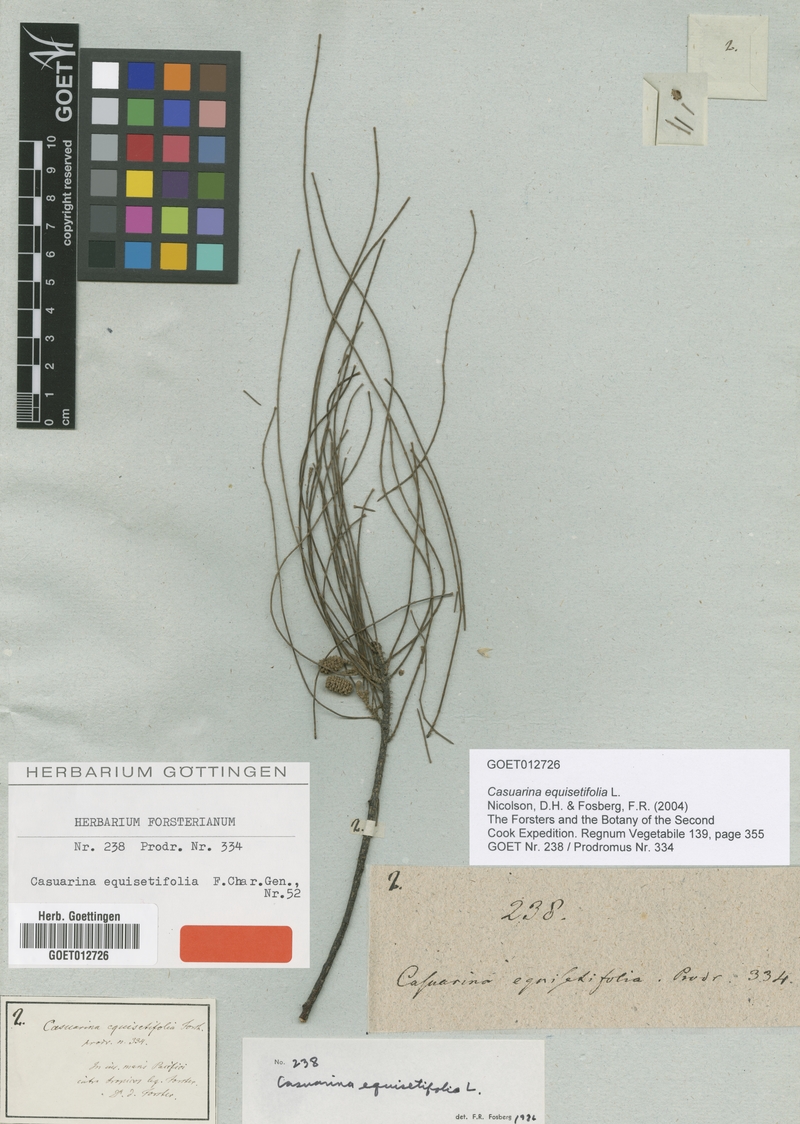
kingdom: Plantae
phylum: Tracheophyta
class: Magnoliopsida
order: Fagales
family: Casuarinaceae
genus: Casuarina
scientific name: Casuarina equisetifolia
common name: Beach sheoak
